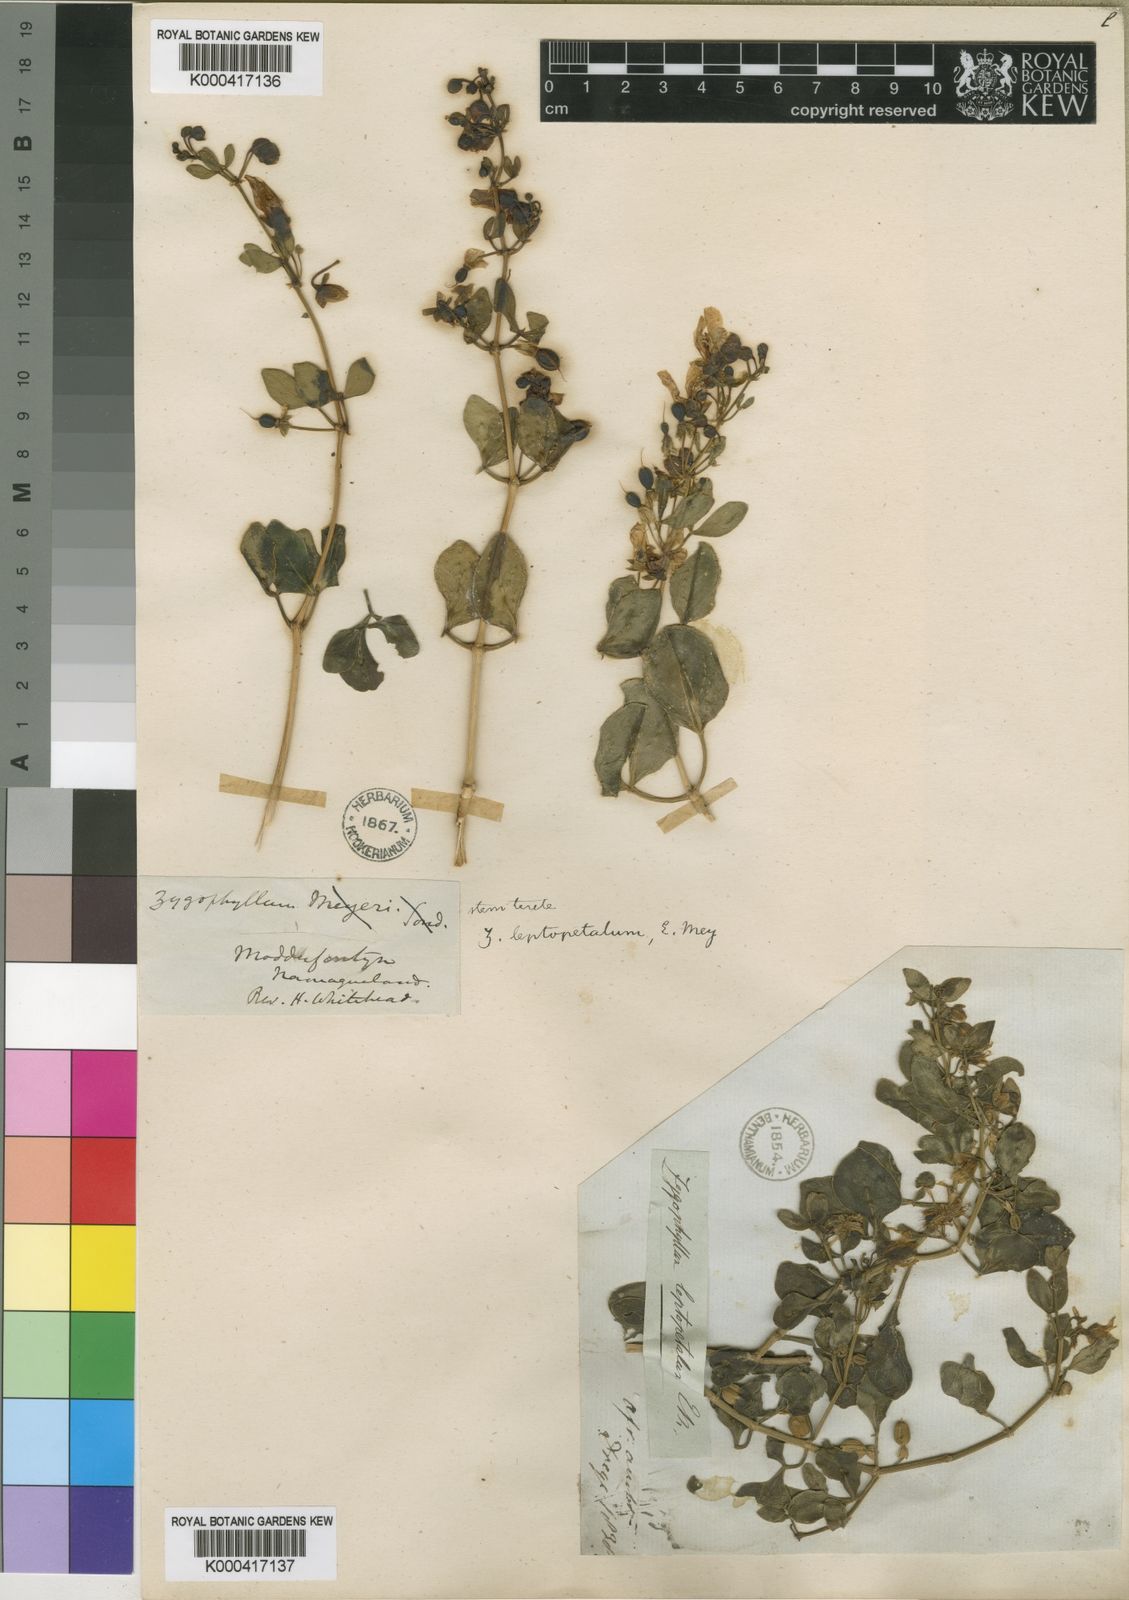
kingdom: Plantae
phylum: Tracheophyta
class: Magnoliopsida
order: Zygophyllales
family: Zygophyllaceae
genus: Roepera
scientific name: Roepera leptopetala
